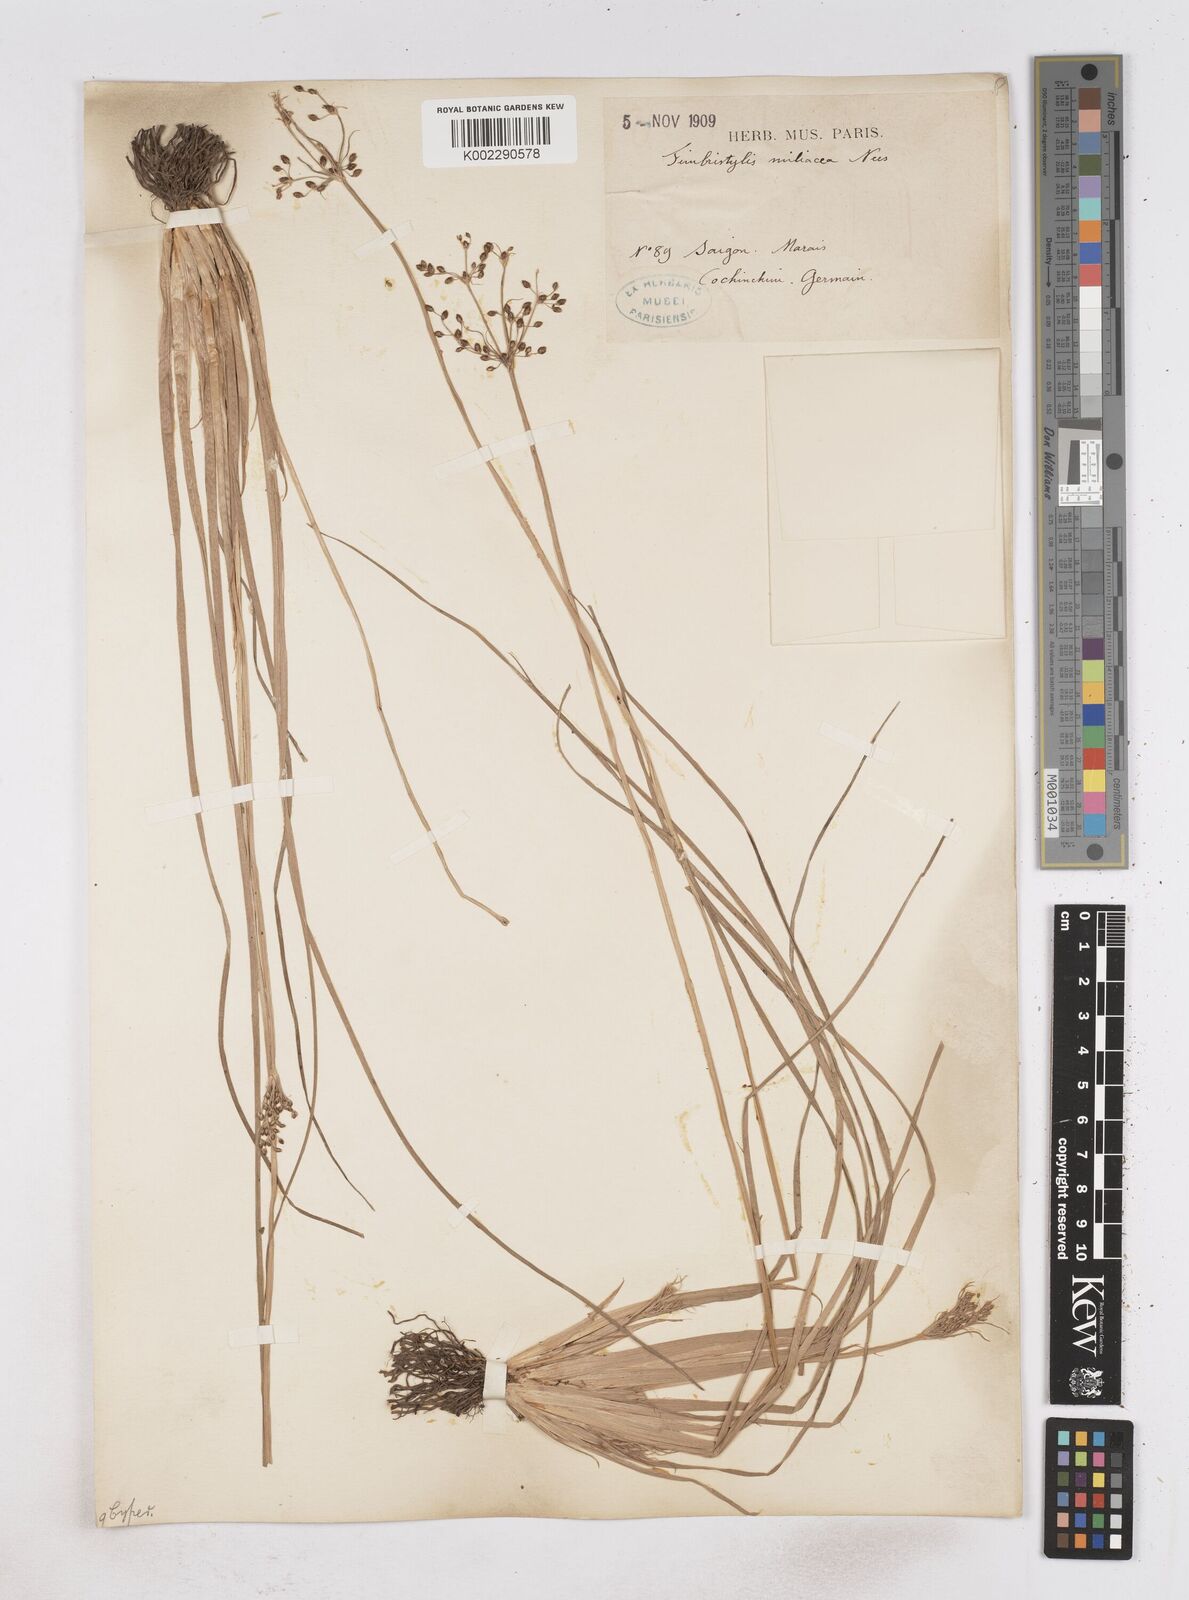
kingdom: Plantae
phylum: Tracheophyta
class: Liliopsida
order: Poales
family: Cyperaceae
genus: Fimbristylis
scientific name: Fimbristylis littoralis
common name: Fimbry
